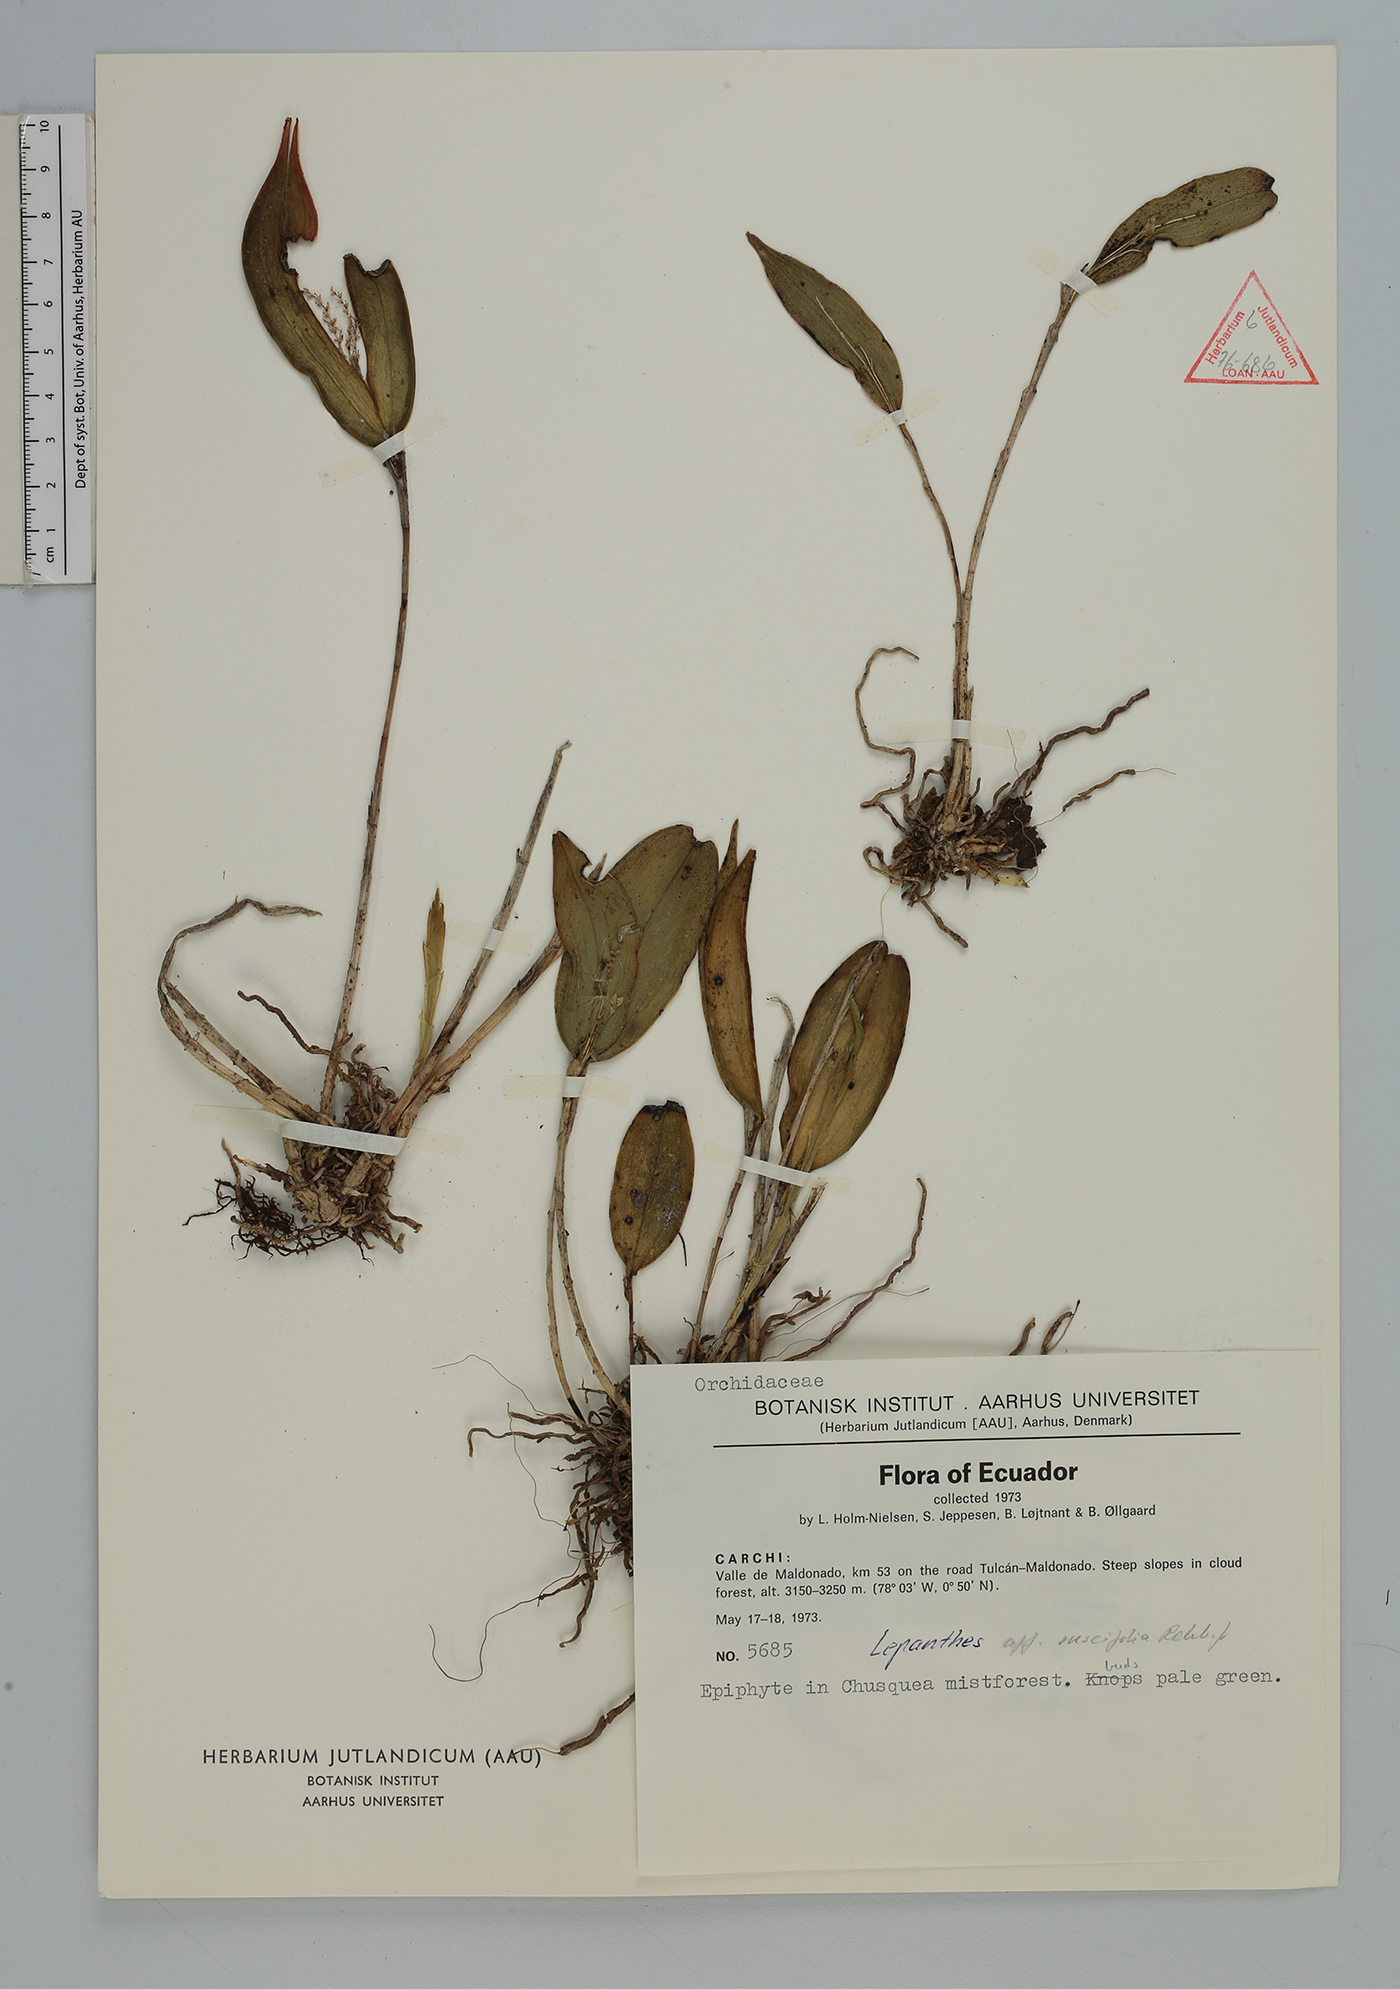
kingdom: Plantae
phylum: Tracheophyta
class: Liliopsida
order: Asparagales
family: Orchidaceae
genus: Lepanthes
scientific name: Lepanthes
